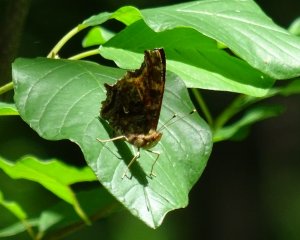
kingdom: Animalia
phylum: Arthropoda
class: Insecta
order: Lepidoptera
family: Nymphalidae
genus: Polygonia
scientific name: Polygonia comma
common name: Eastern Comma
